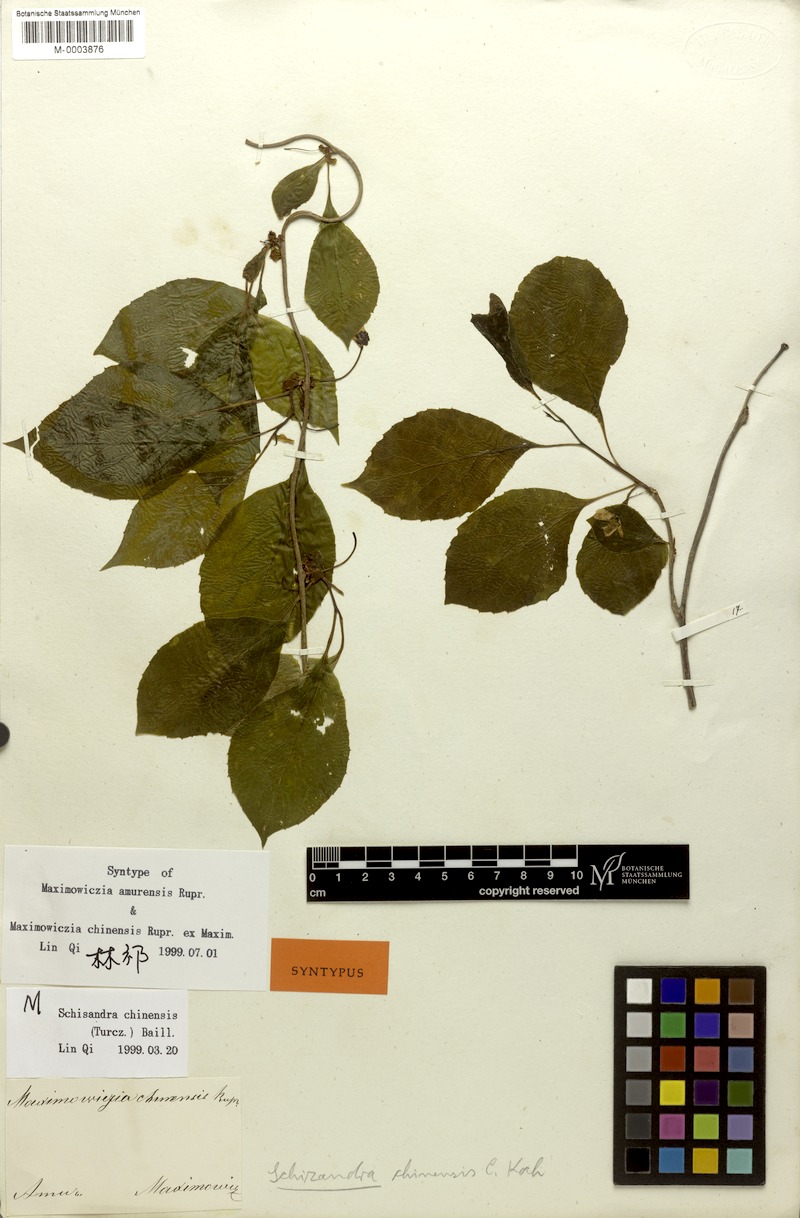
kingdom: Plantae
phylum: Tracheophyta
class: Magnoliopsida
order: Austrobaileyales
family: Schisandraceae
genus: Schisandra
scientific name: Schisandra chinensis
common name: Magnolia-vine
